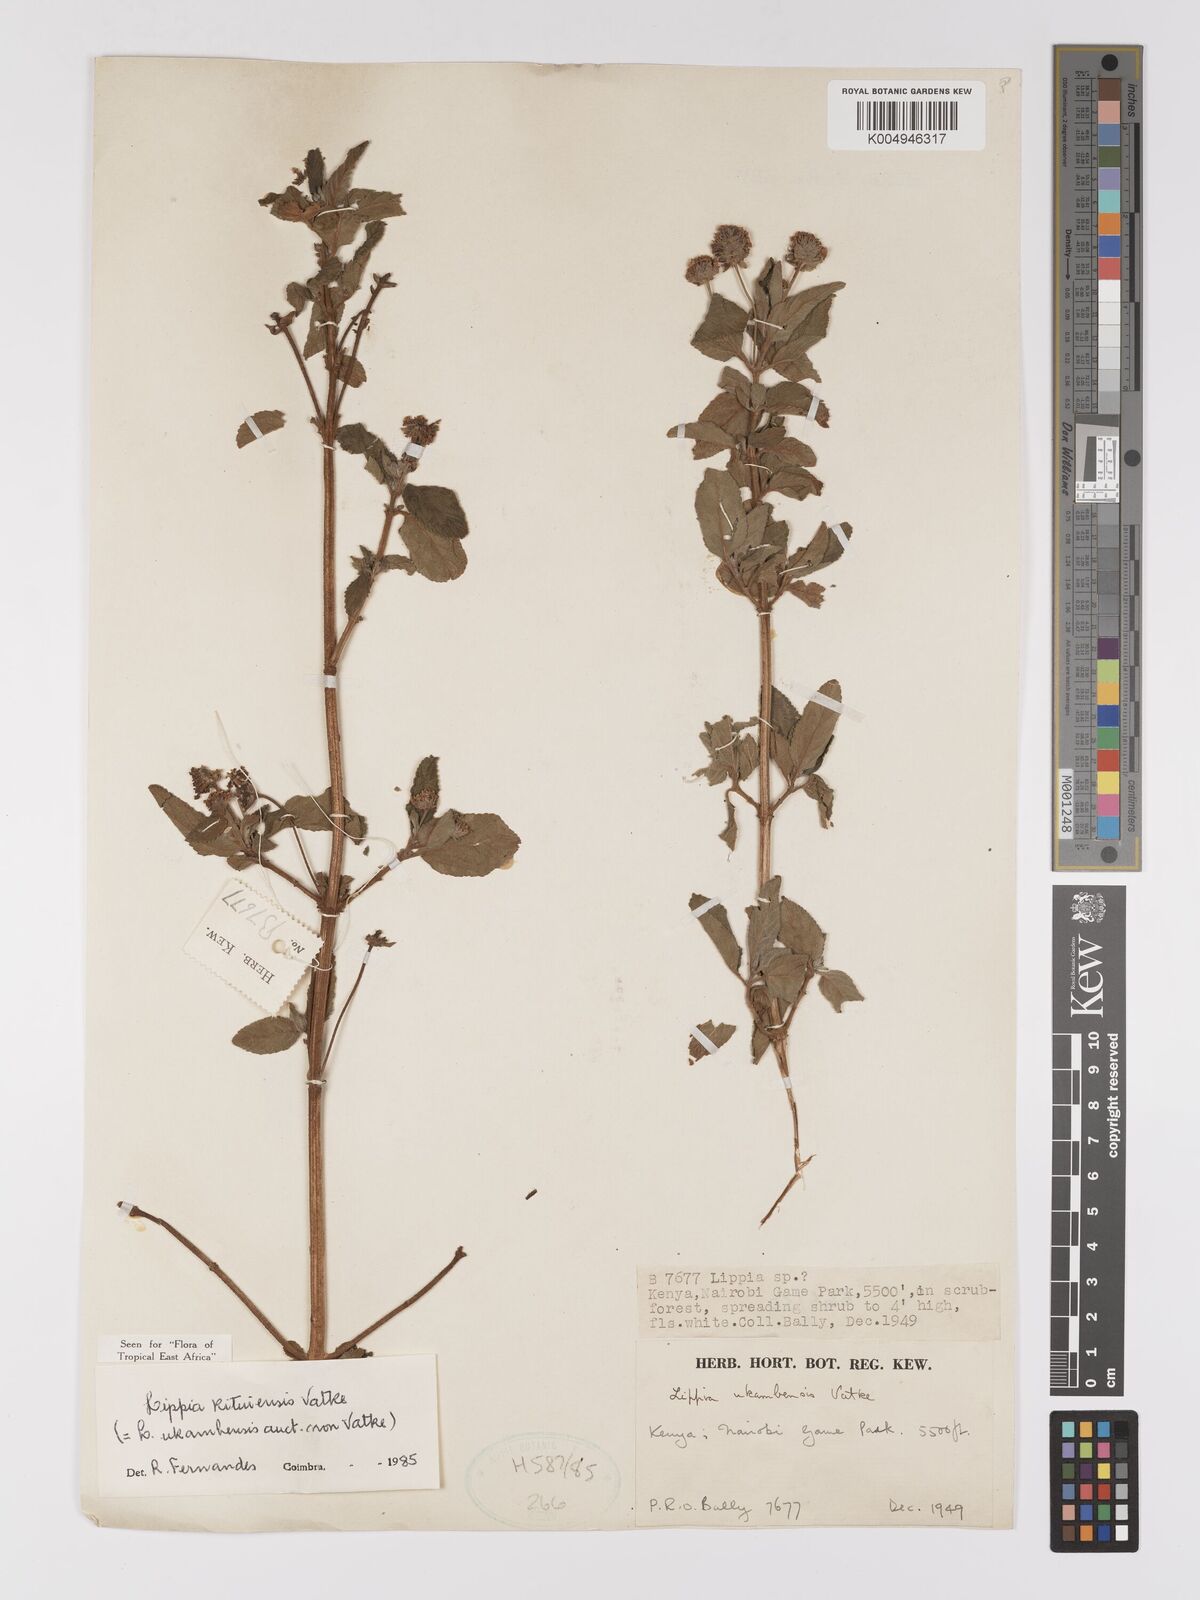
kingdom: Plantae
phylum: Tracheophyta
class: Magnoliopsida
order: Lamiales
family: Verbenaceae
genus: Lippia
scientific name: Lippia kituiensis
